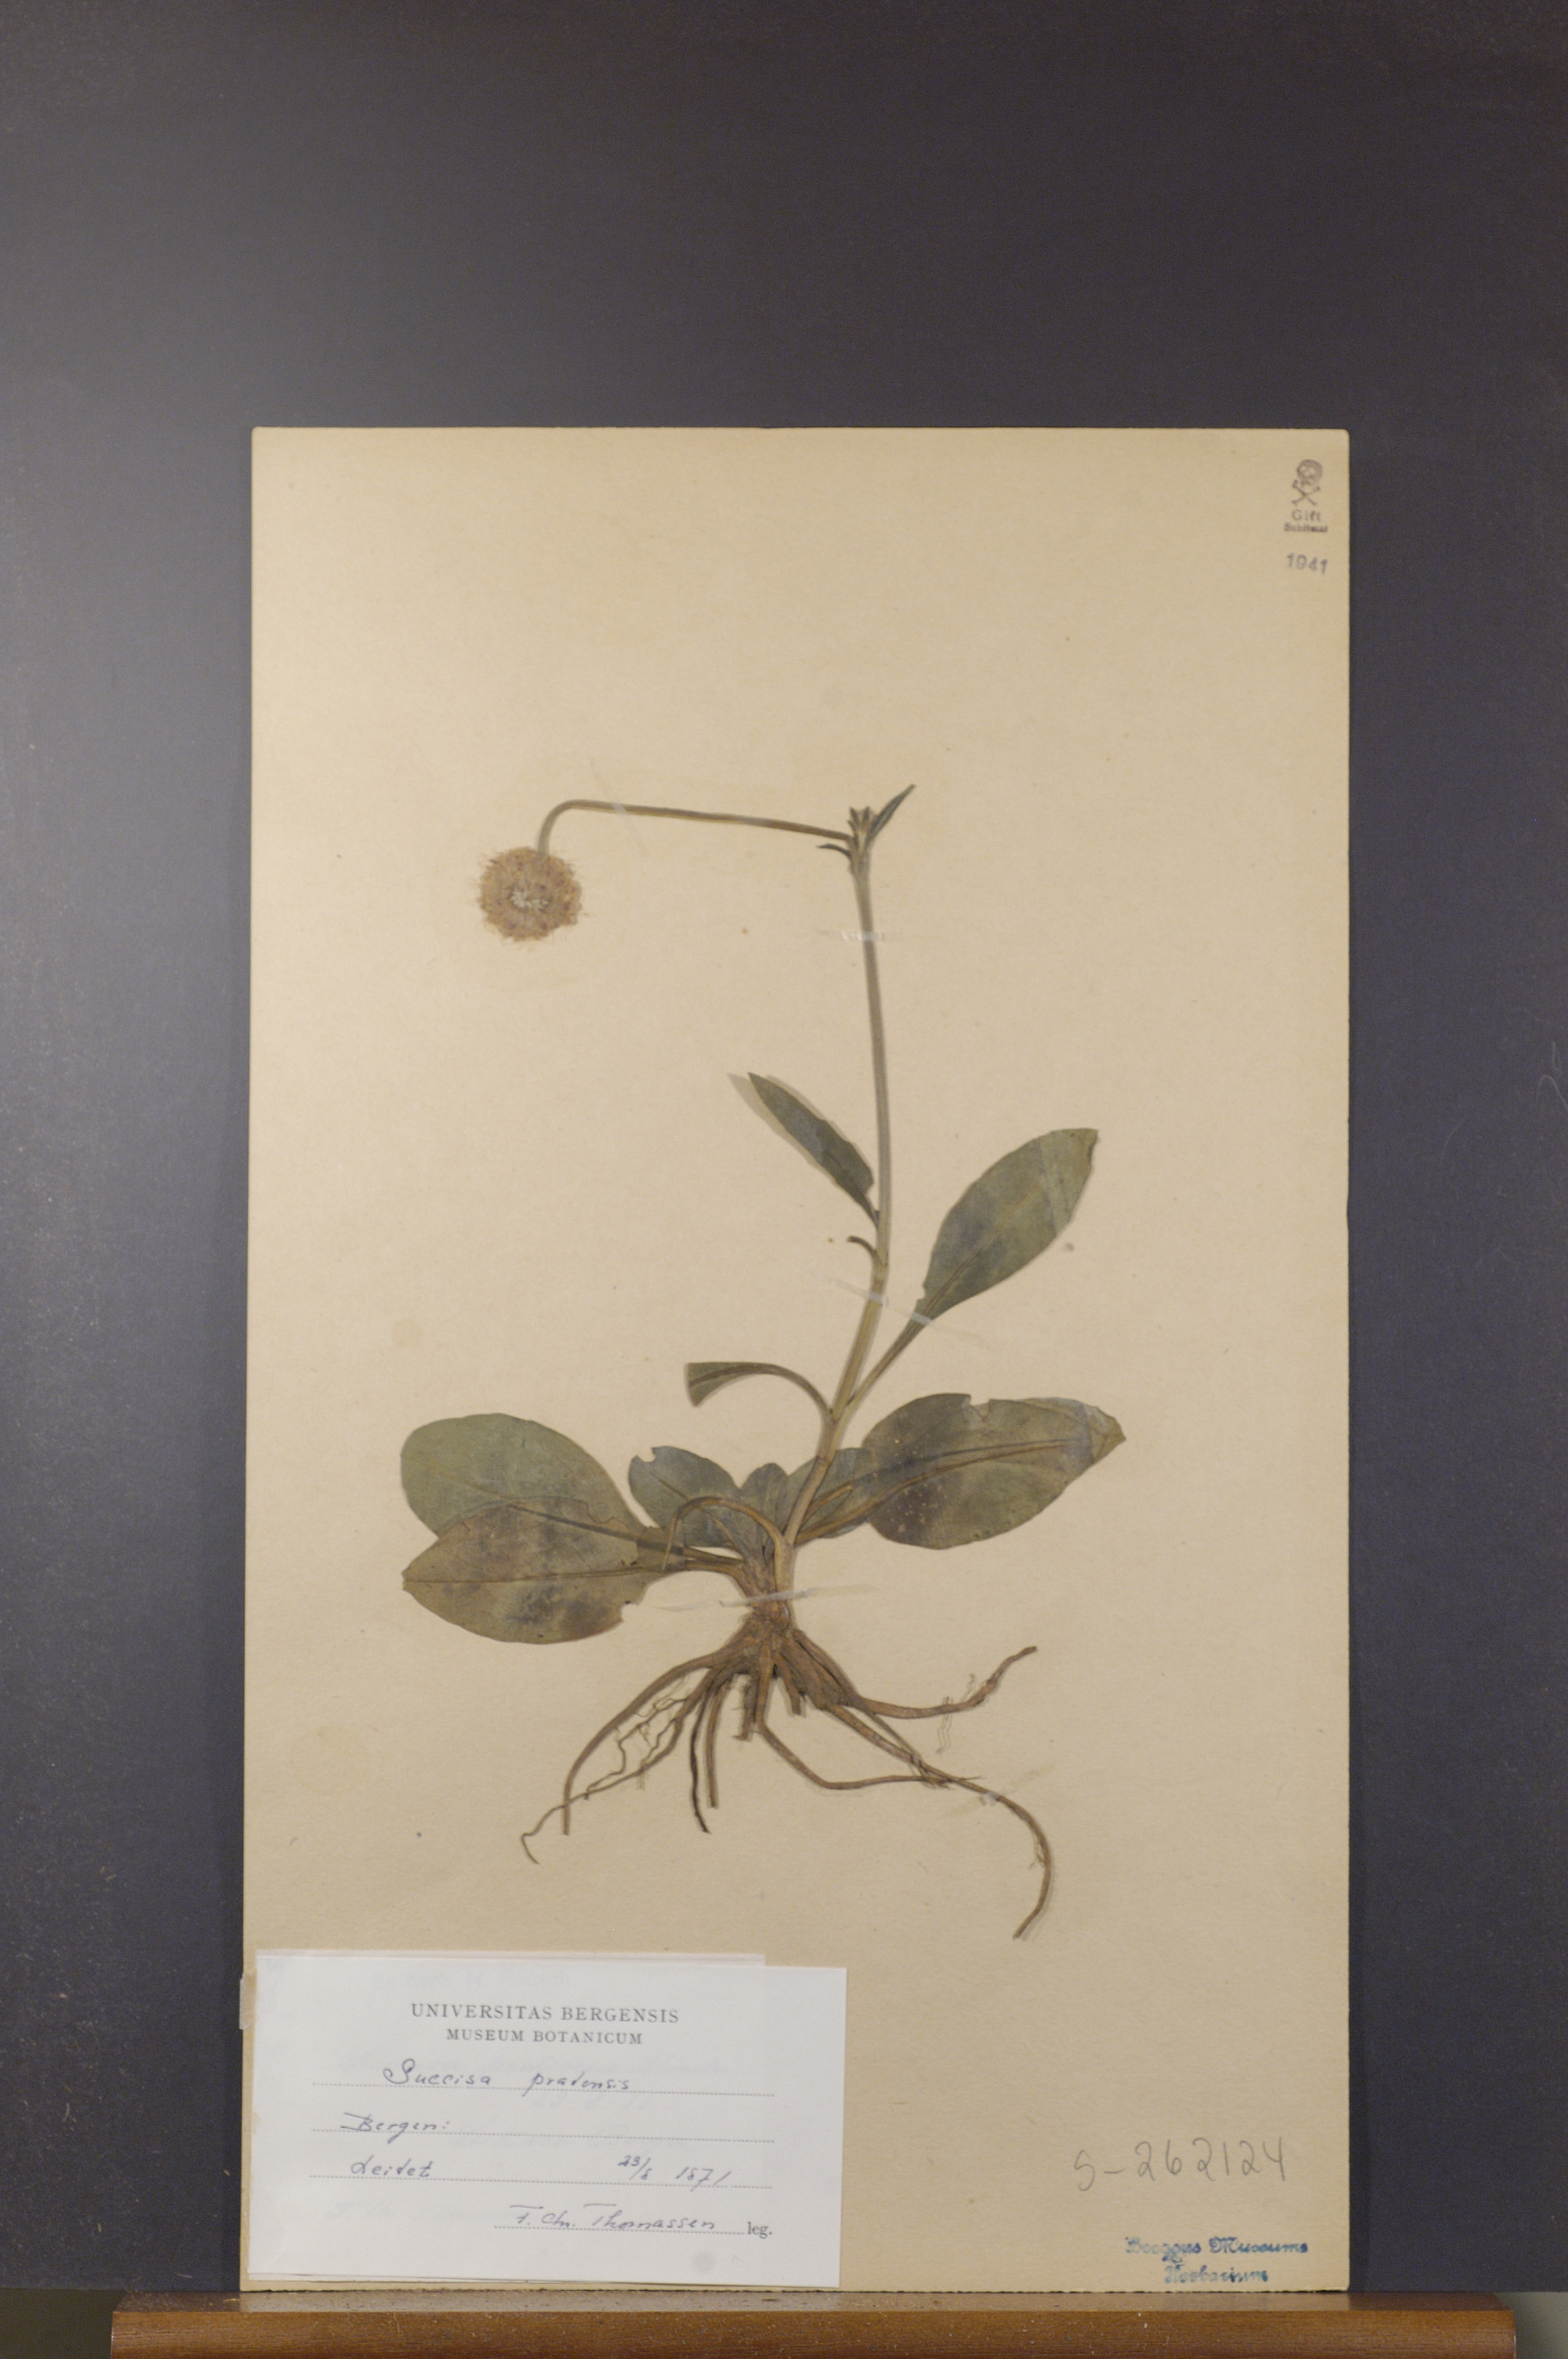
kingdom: Plantae
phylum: Tracheophyta
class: Magnoliopsida
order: Dipsacales
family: Caprifoliaceae
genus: Succisa
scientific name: Succisa pratensis
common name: Devil's-bit
